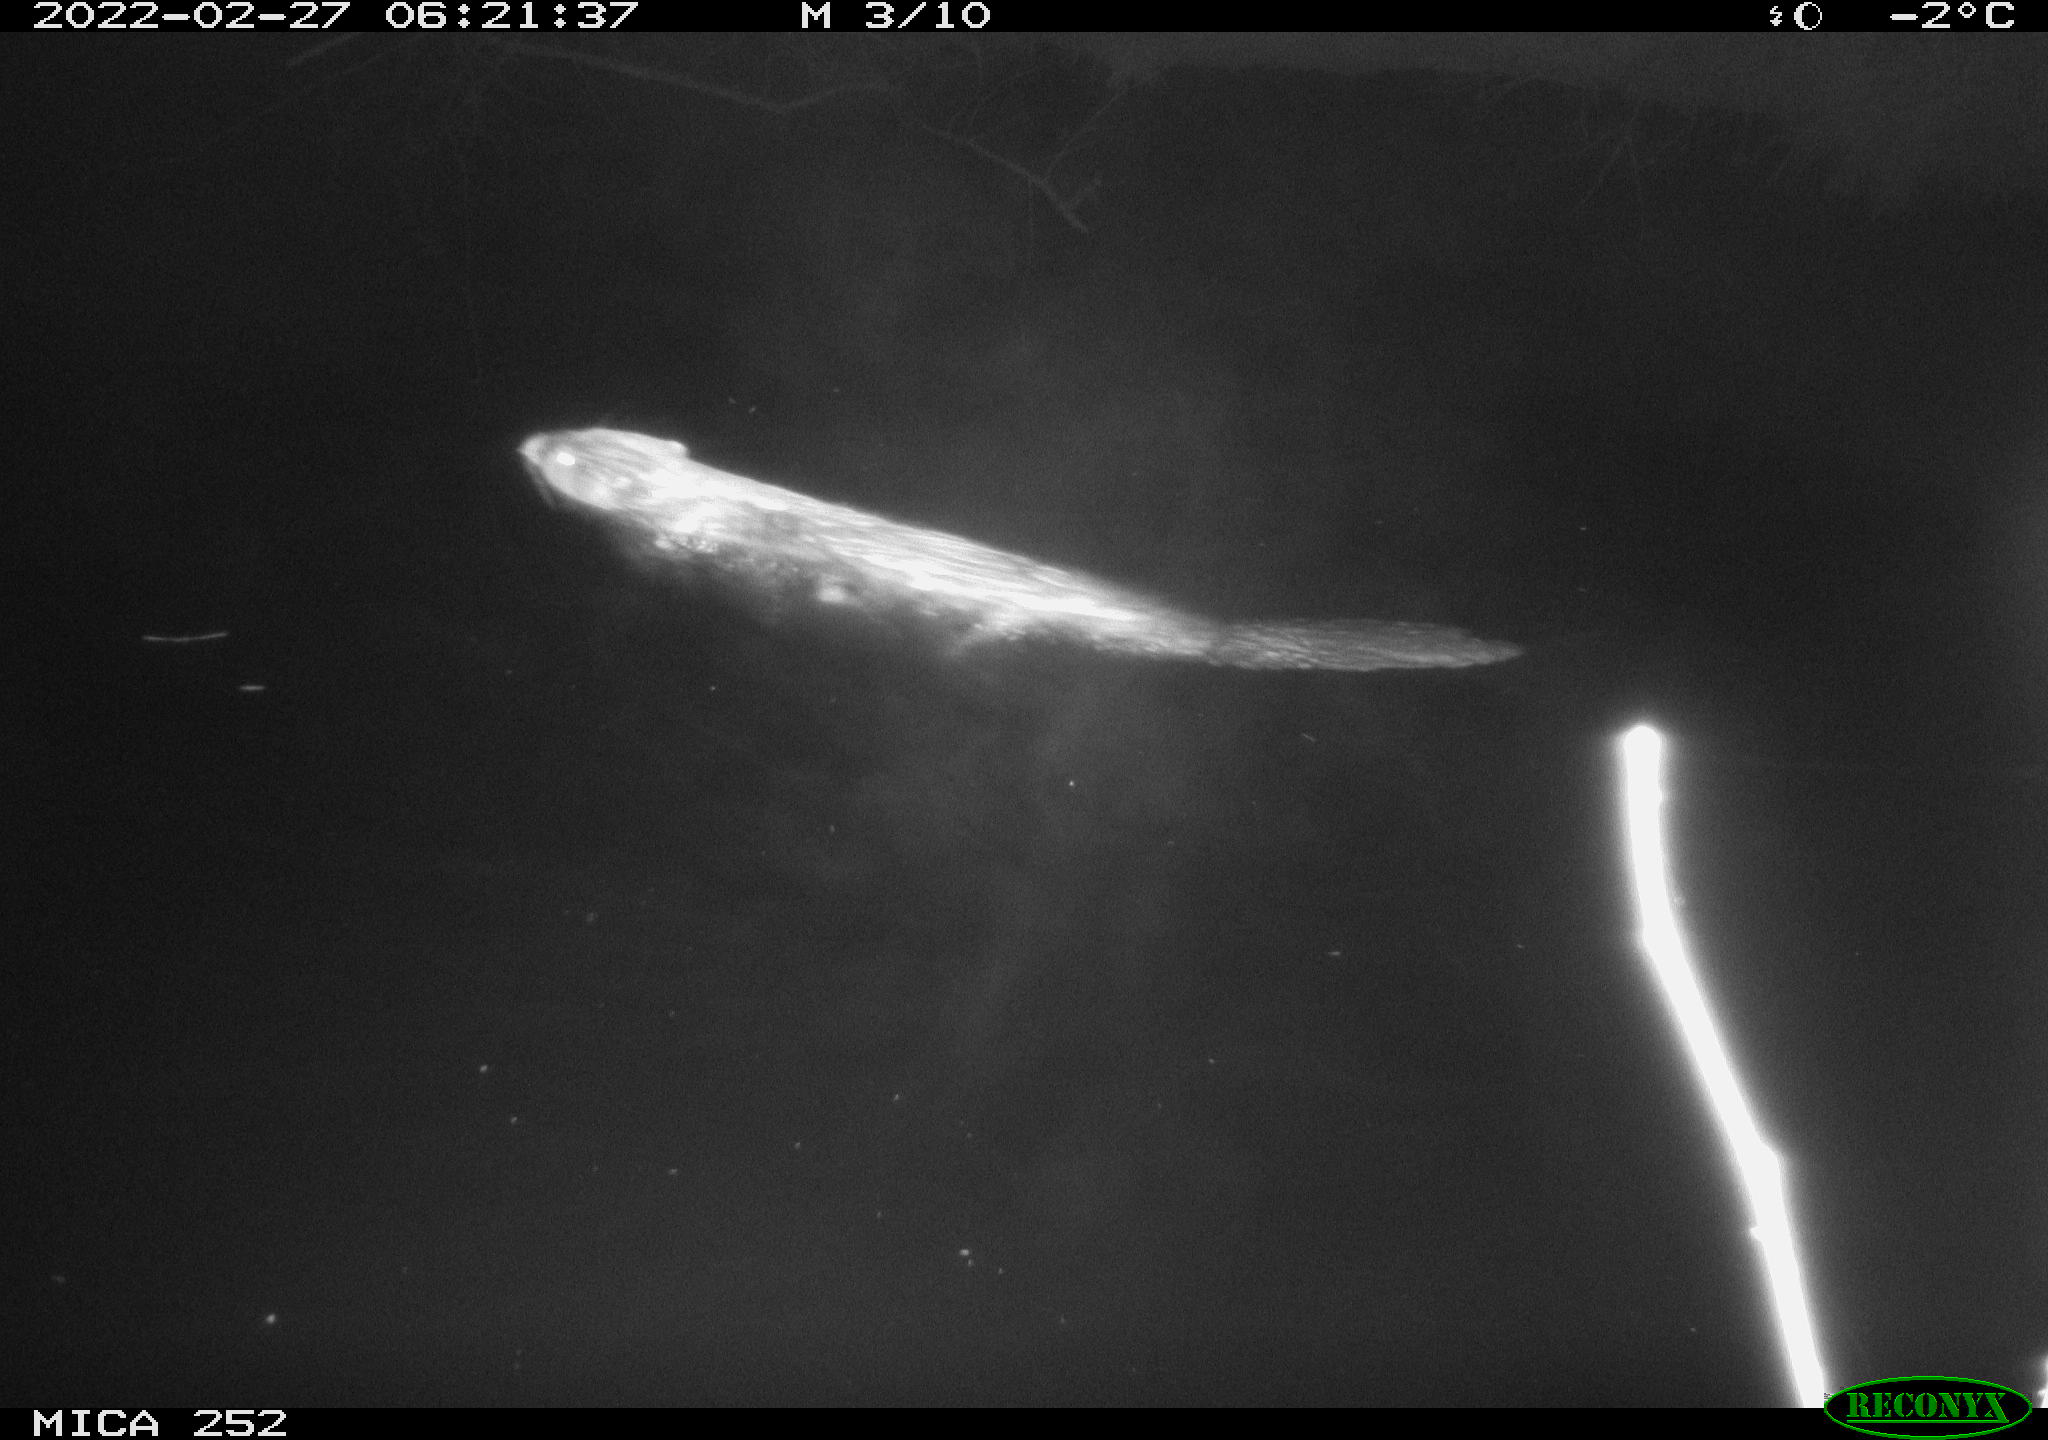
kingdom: Animalia
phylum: Chordata
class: Mammalia
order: Rodentia
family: Castoridae
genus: Castor
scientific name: Castor fiber
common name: Eurasian beaver
